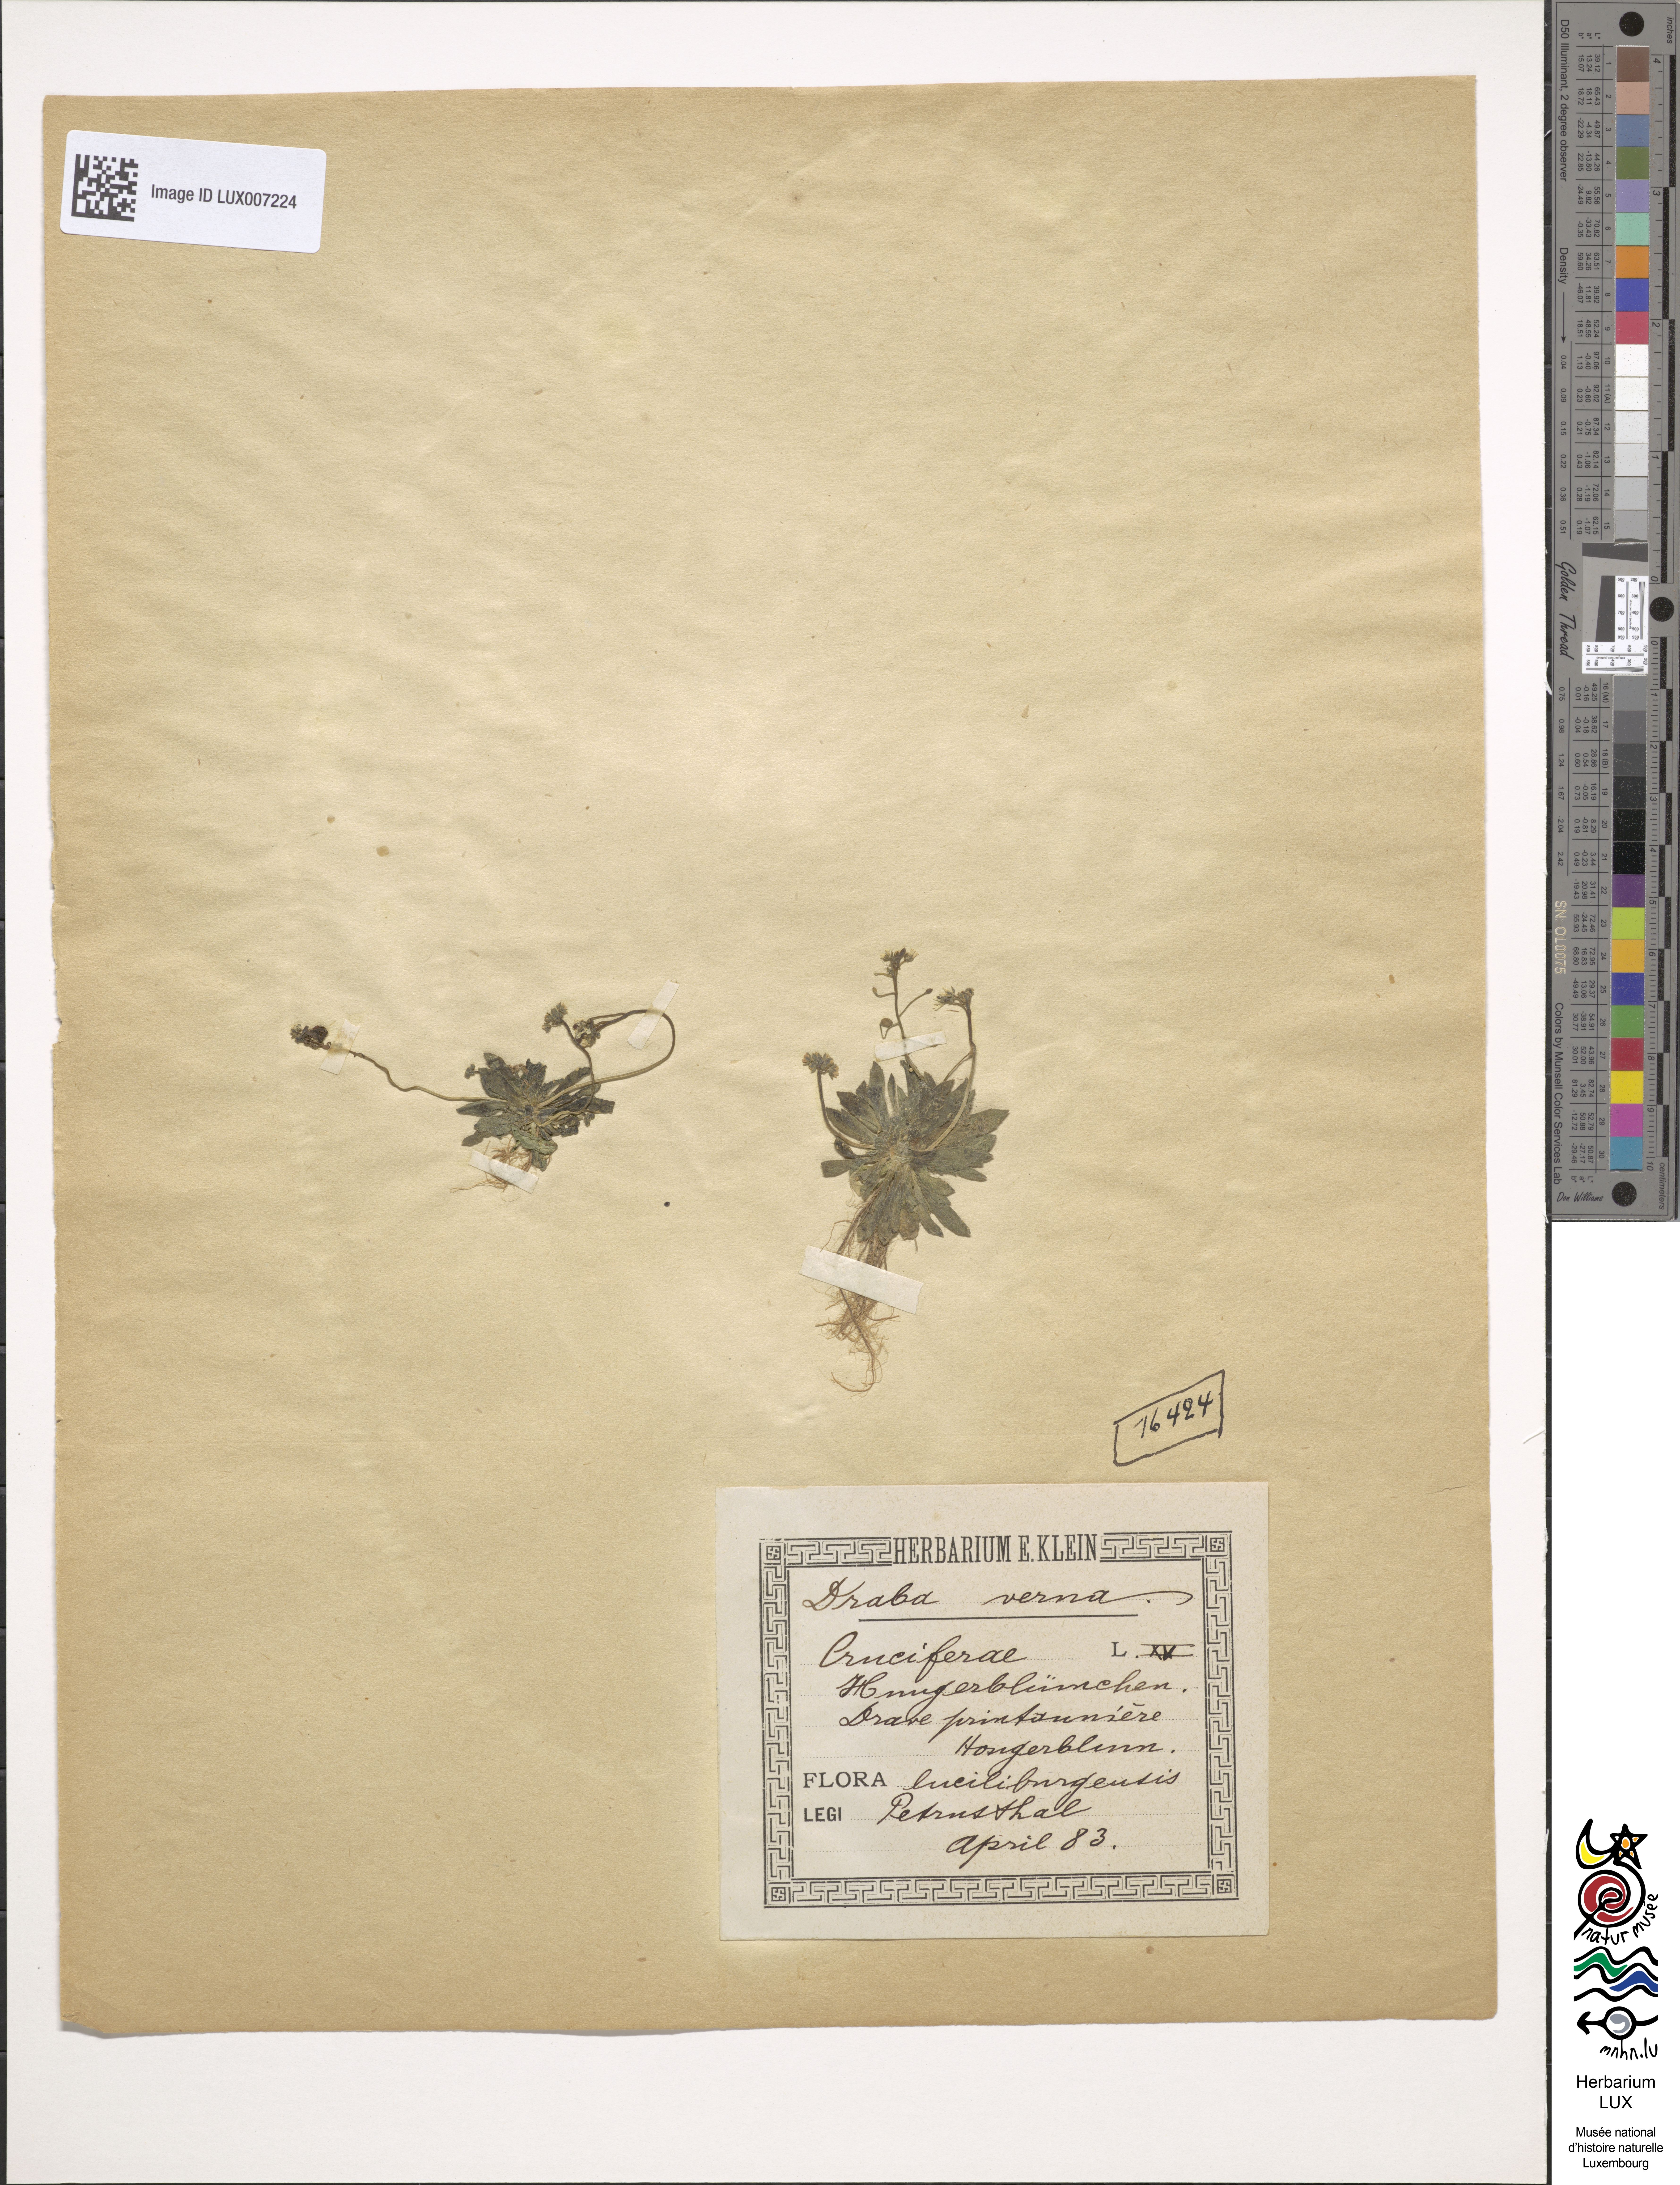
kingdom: Plantae
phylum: Tracheophyta
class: Magnoliopsida
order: Brassicales
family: Brassicaceae
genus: Draba
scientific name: Draba verna
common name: Spring draba
